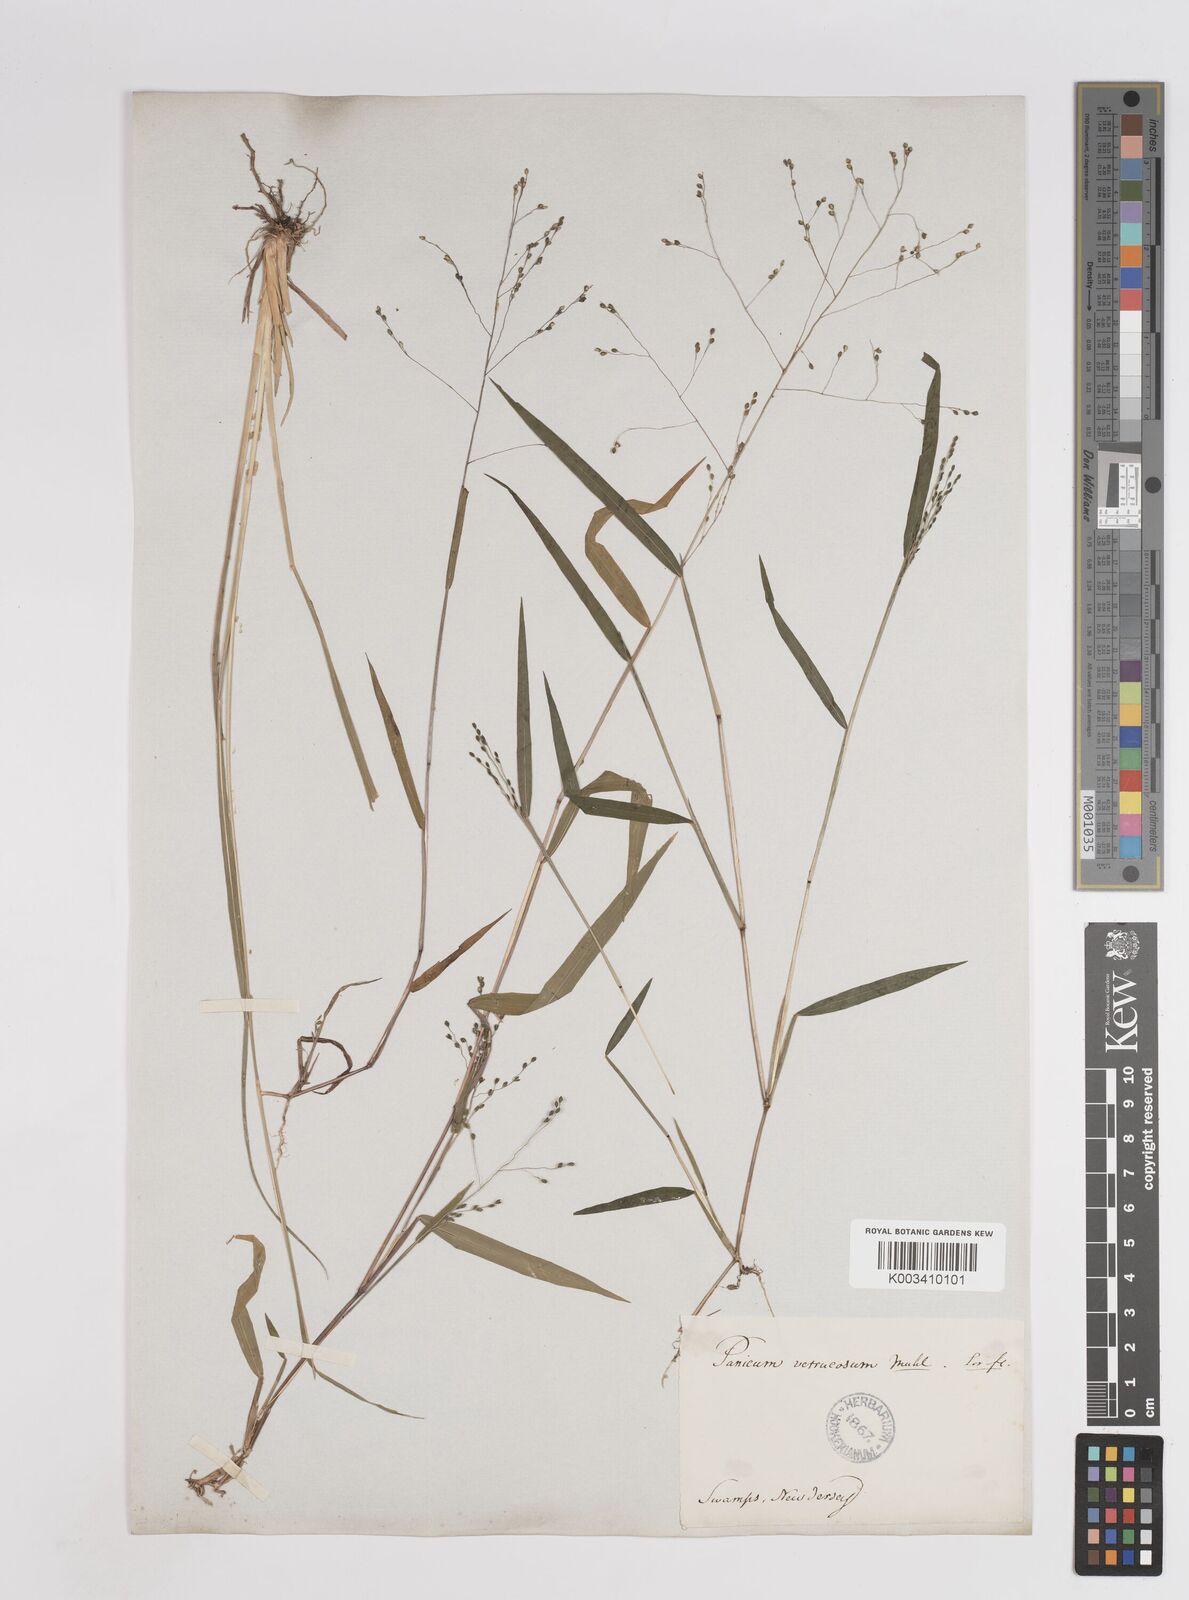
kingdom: Plantae
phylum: Tracheophyta
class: Liliopsida
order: Poales
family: Poaceae
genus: Kellochloa
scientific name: Kellochloa verrucosa
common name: Warty panic grass
